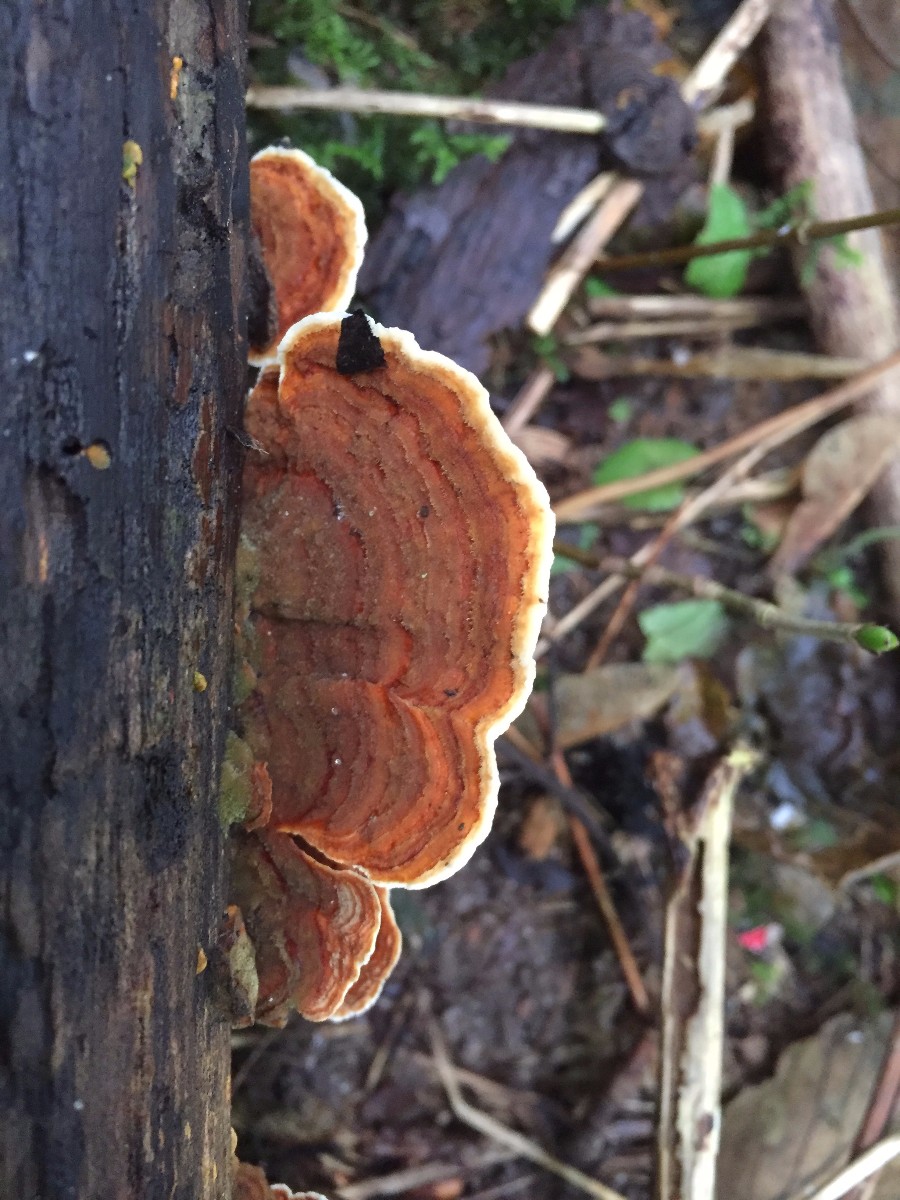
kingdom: Fungi
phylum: Basidiomycota
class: Agaricomycetes
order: Gloeophyllales
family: Gloeophyllaceae
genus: Gloeophyllum
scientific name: Gloeophyllum sepiarium
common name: fyrre-korkhat
